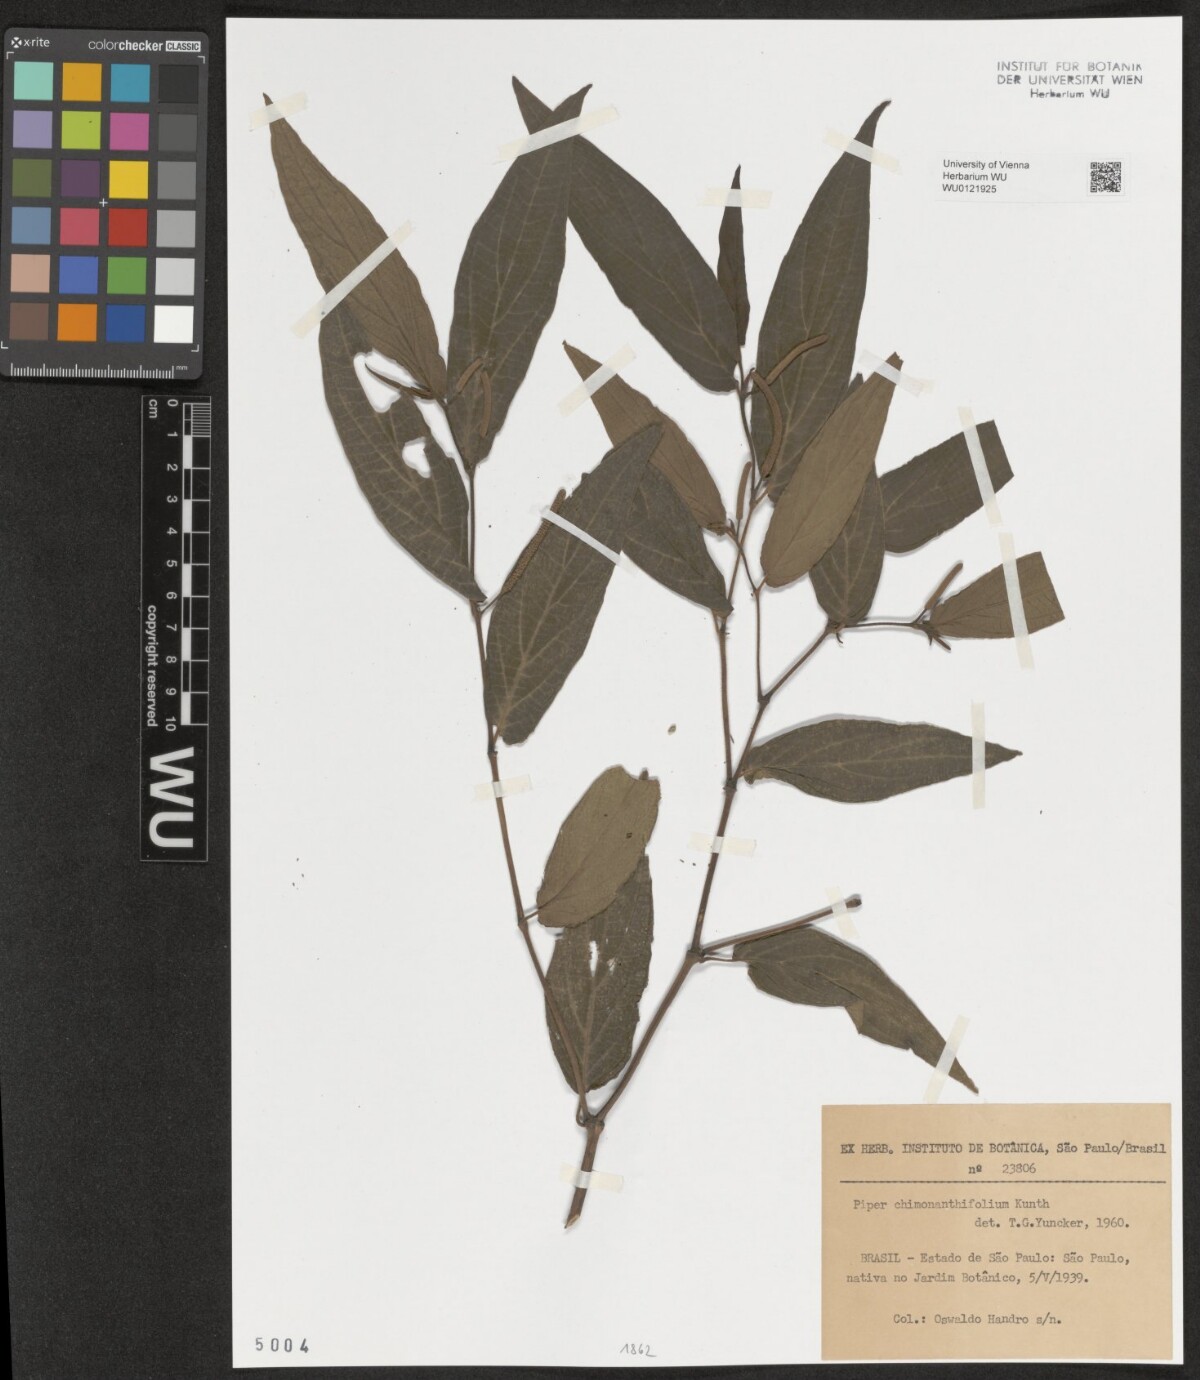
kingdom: Plantae
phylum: Tracheophyta
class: Magnoliopsida
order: Piperales
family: Piperaceae
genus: Piper
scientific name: Piper chimonanthifolium
